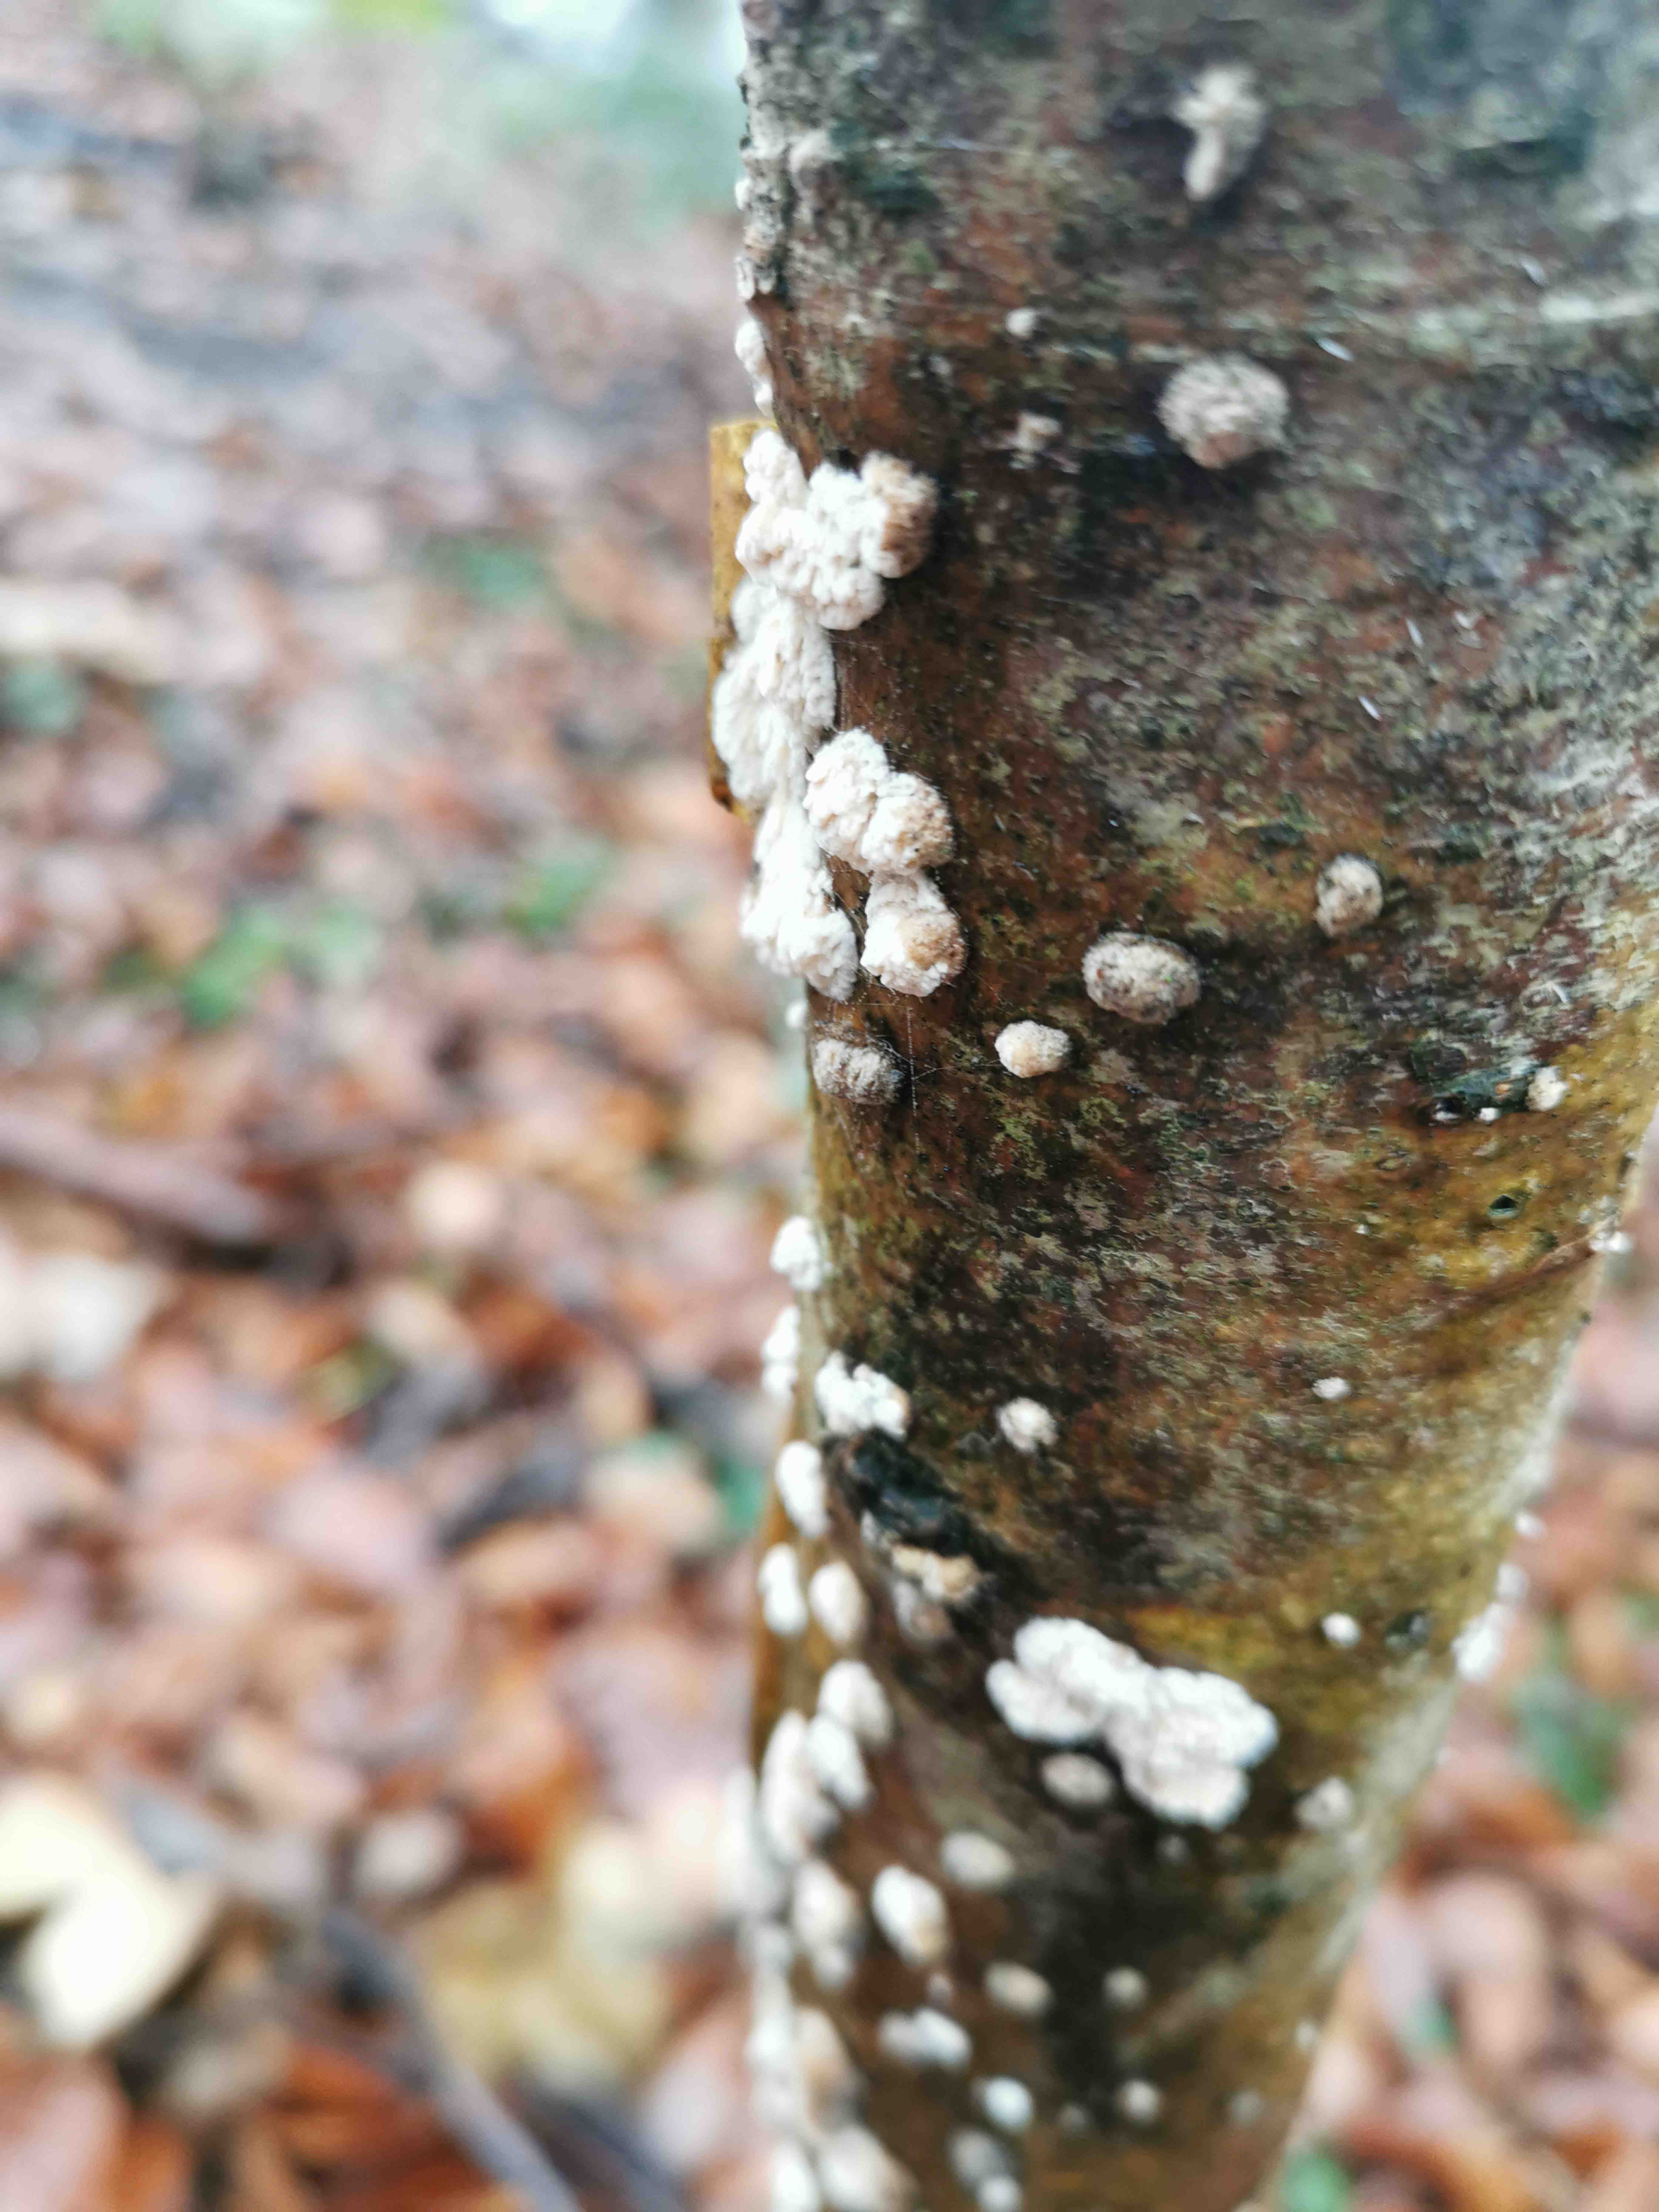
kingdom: Fungi
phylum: Basidiomycota
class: Agaricomycetes
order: Hymenochaetales
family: Schizoporaceae
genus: Xylodon
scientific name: Xylodon radula
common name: grovtandet kalkskind
